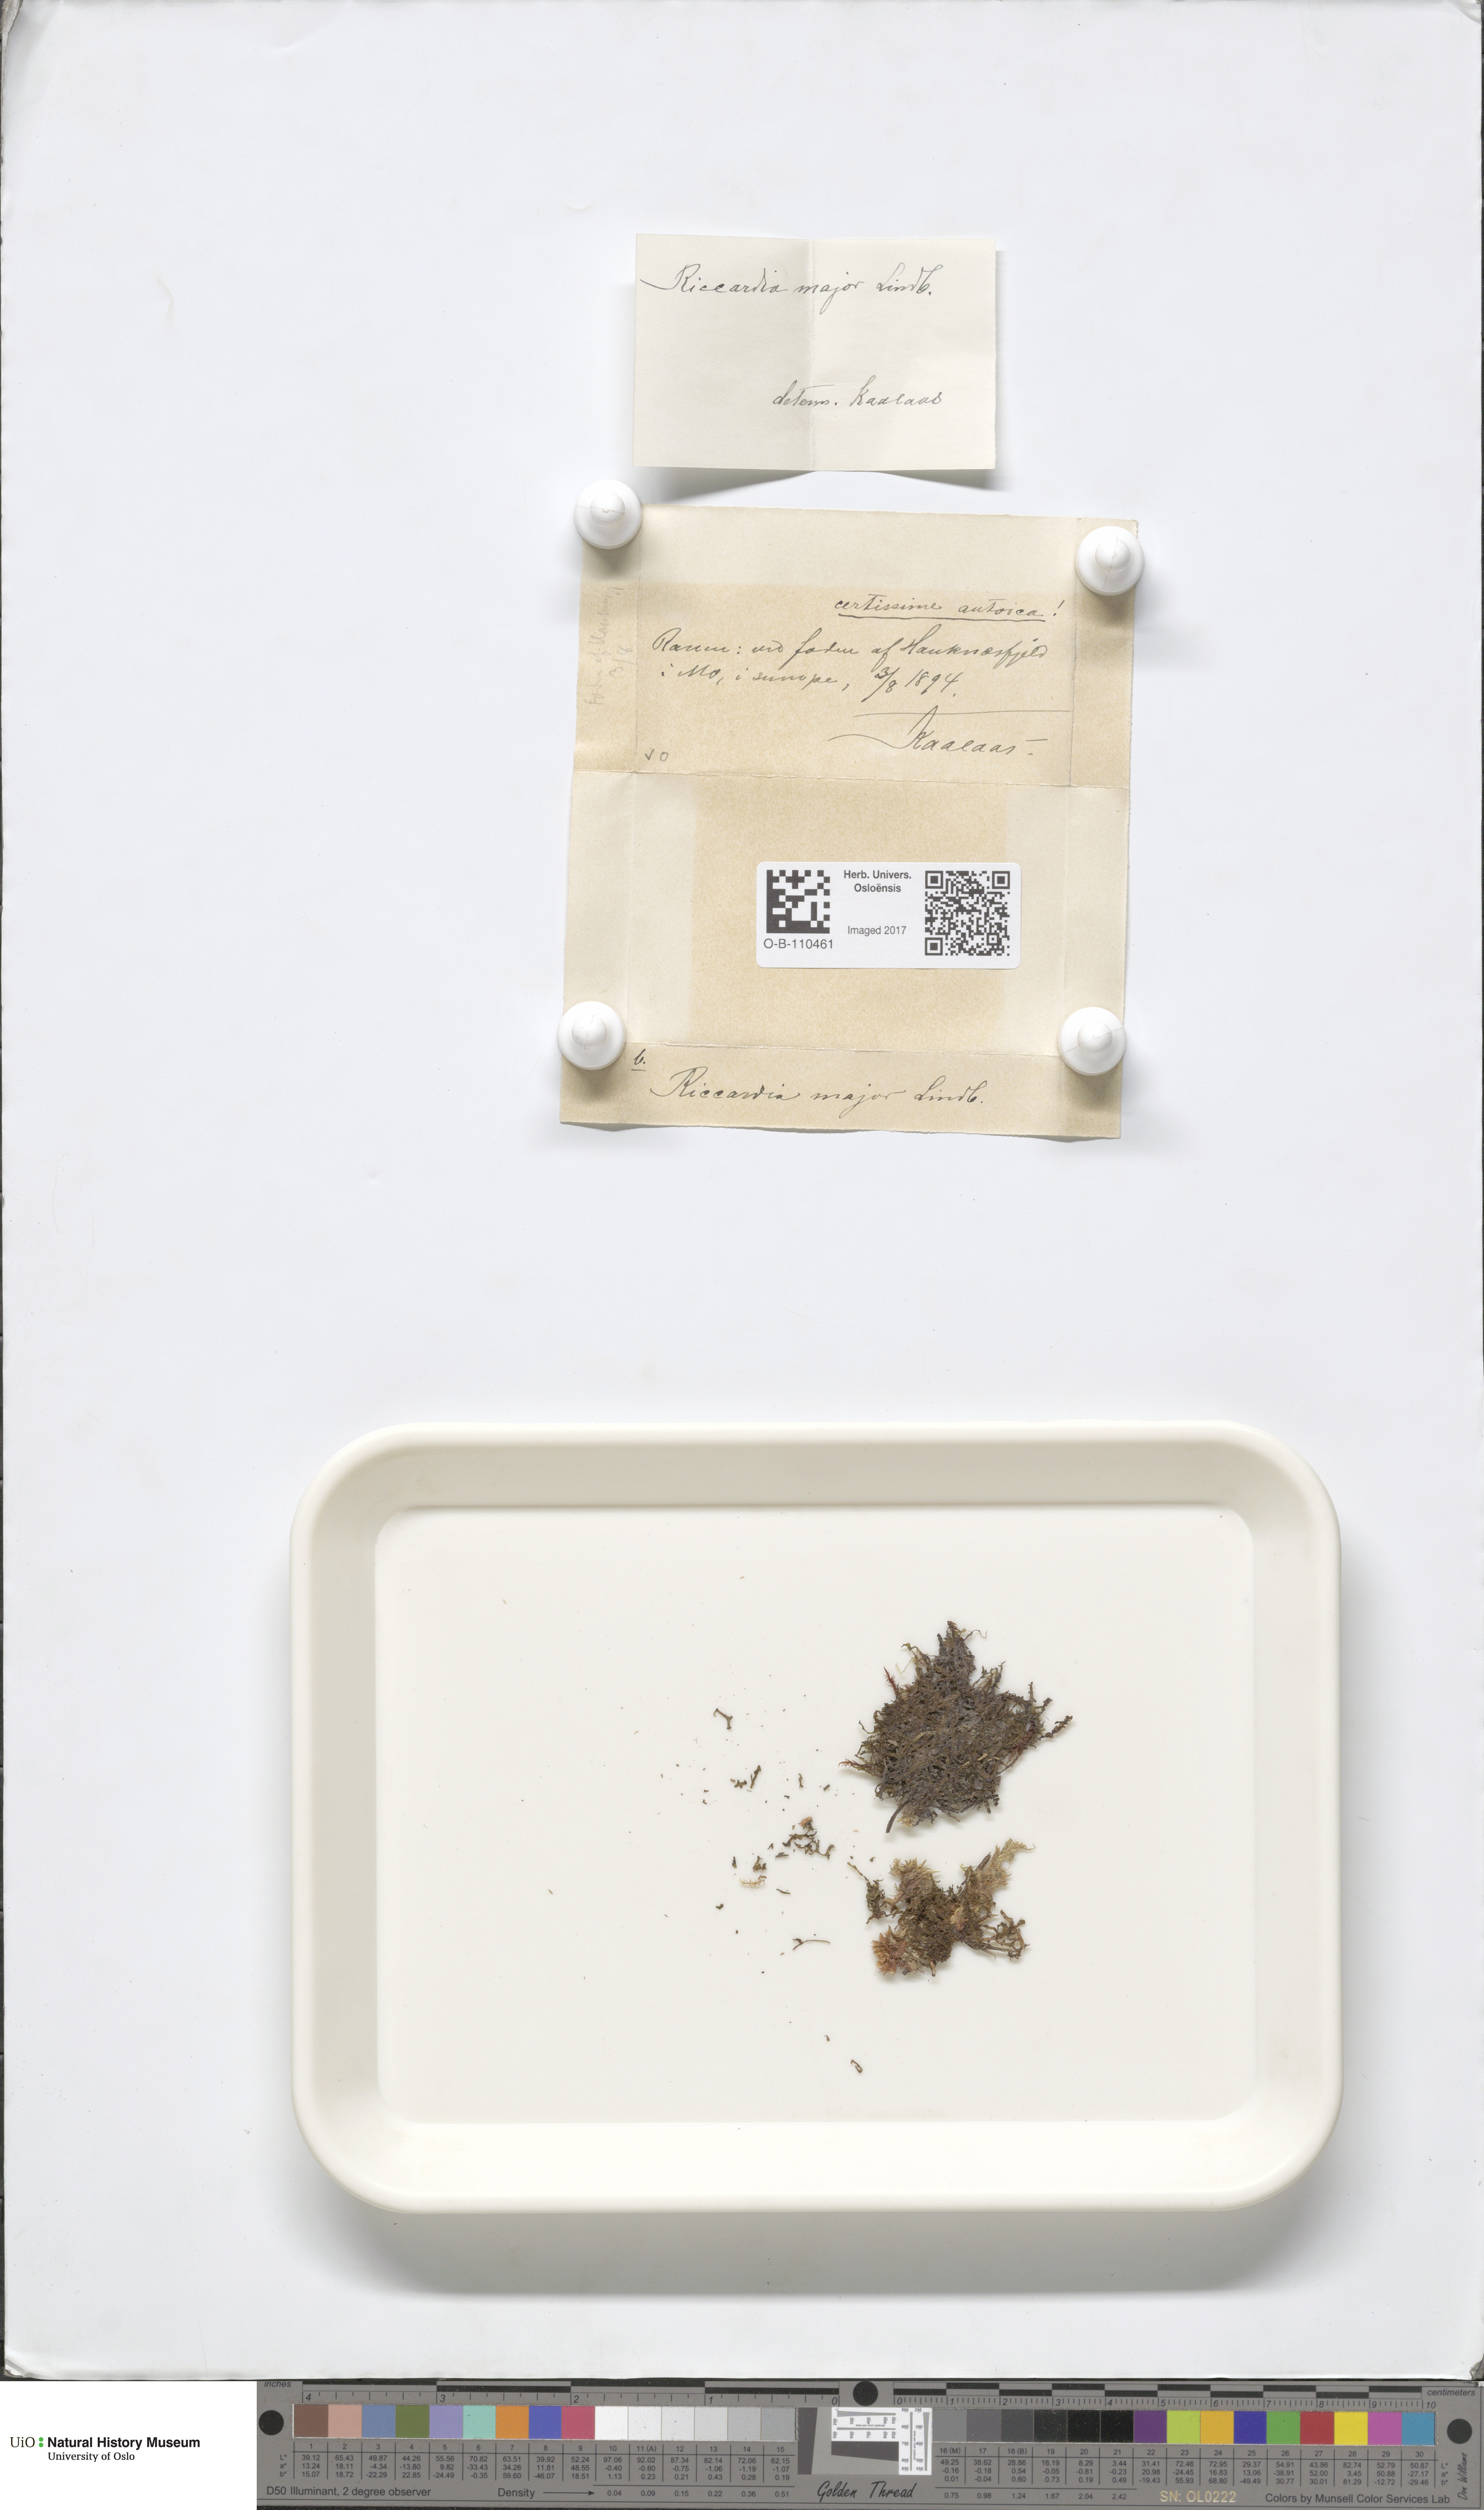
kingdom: Plantae
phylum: Marchantiophyta
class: Jungermanniopsida
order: Metzgeriales
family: Aneuraceae
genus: Riccardia
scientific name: Riccardia incurvata
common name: Lesser germanderwort
